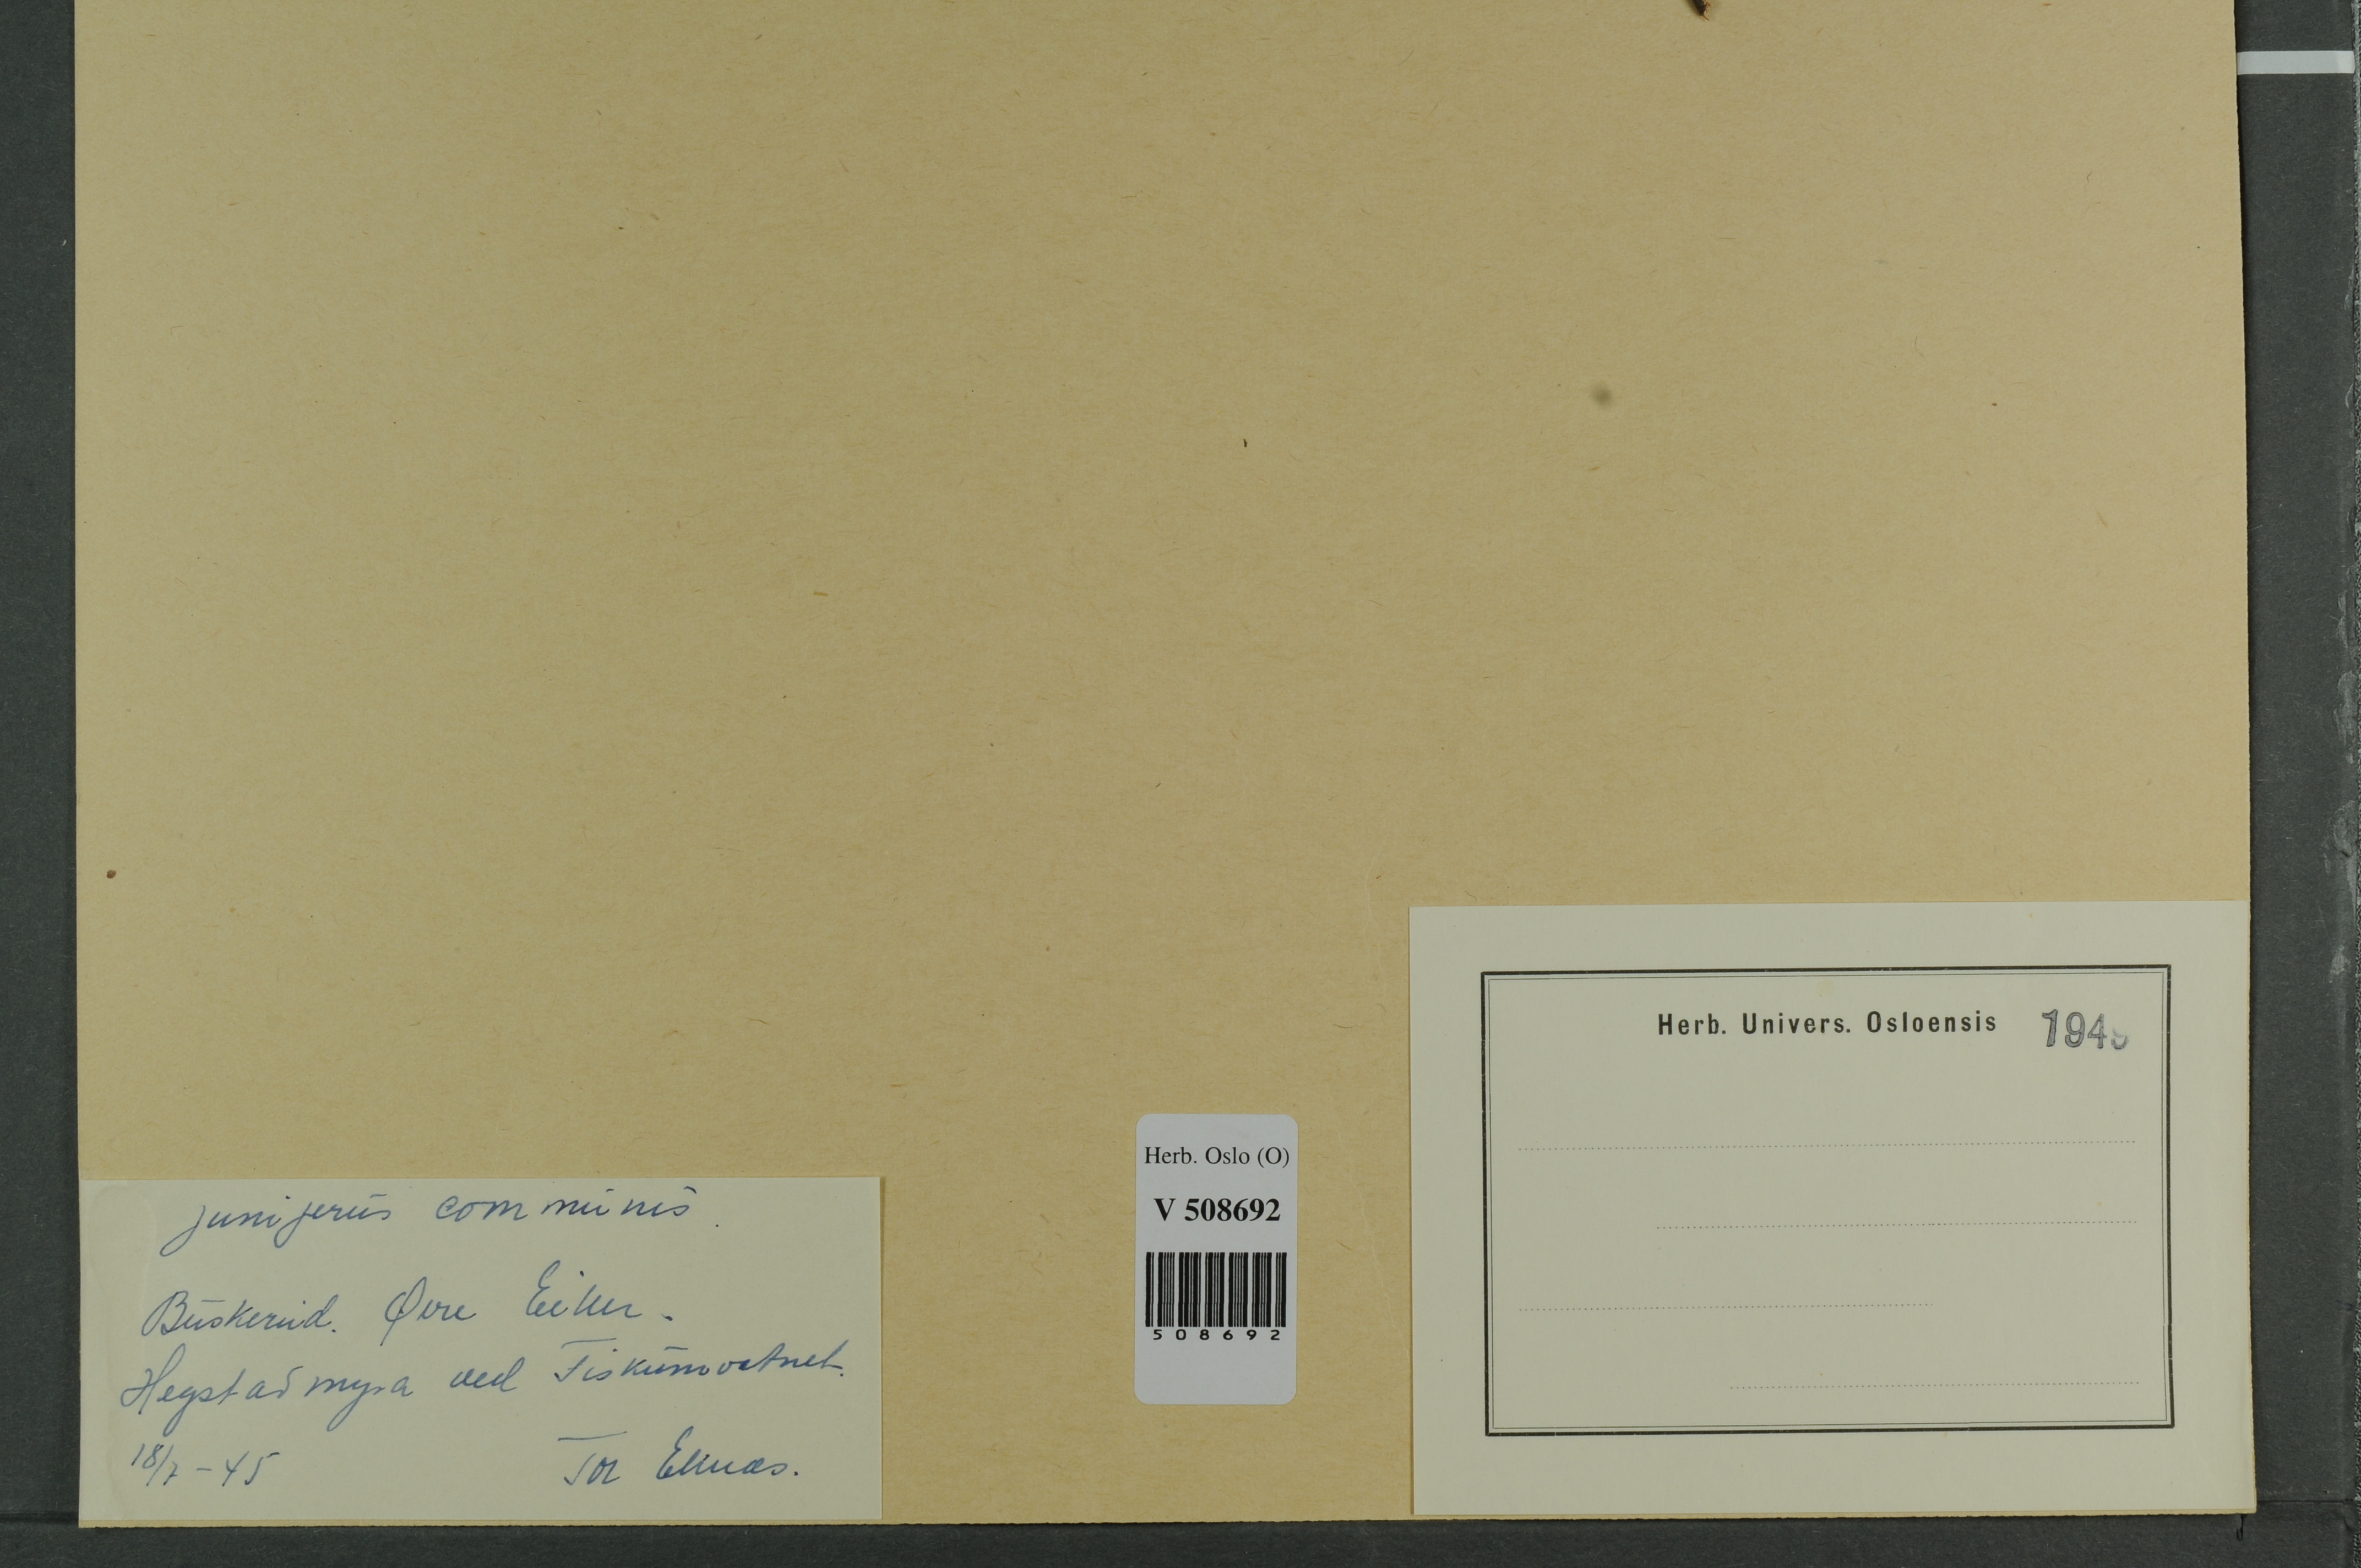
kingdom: Plantae
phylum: Tracheophyta
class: Pinopsida
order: Pinales
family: Cupressaceae
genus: Juniperus
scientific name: Juniperus communis
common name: Common juniper
